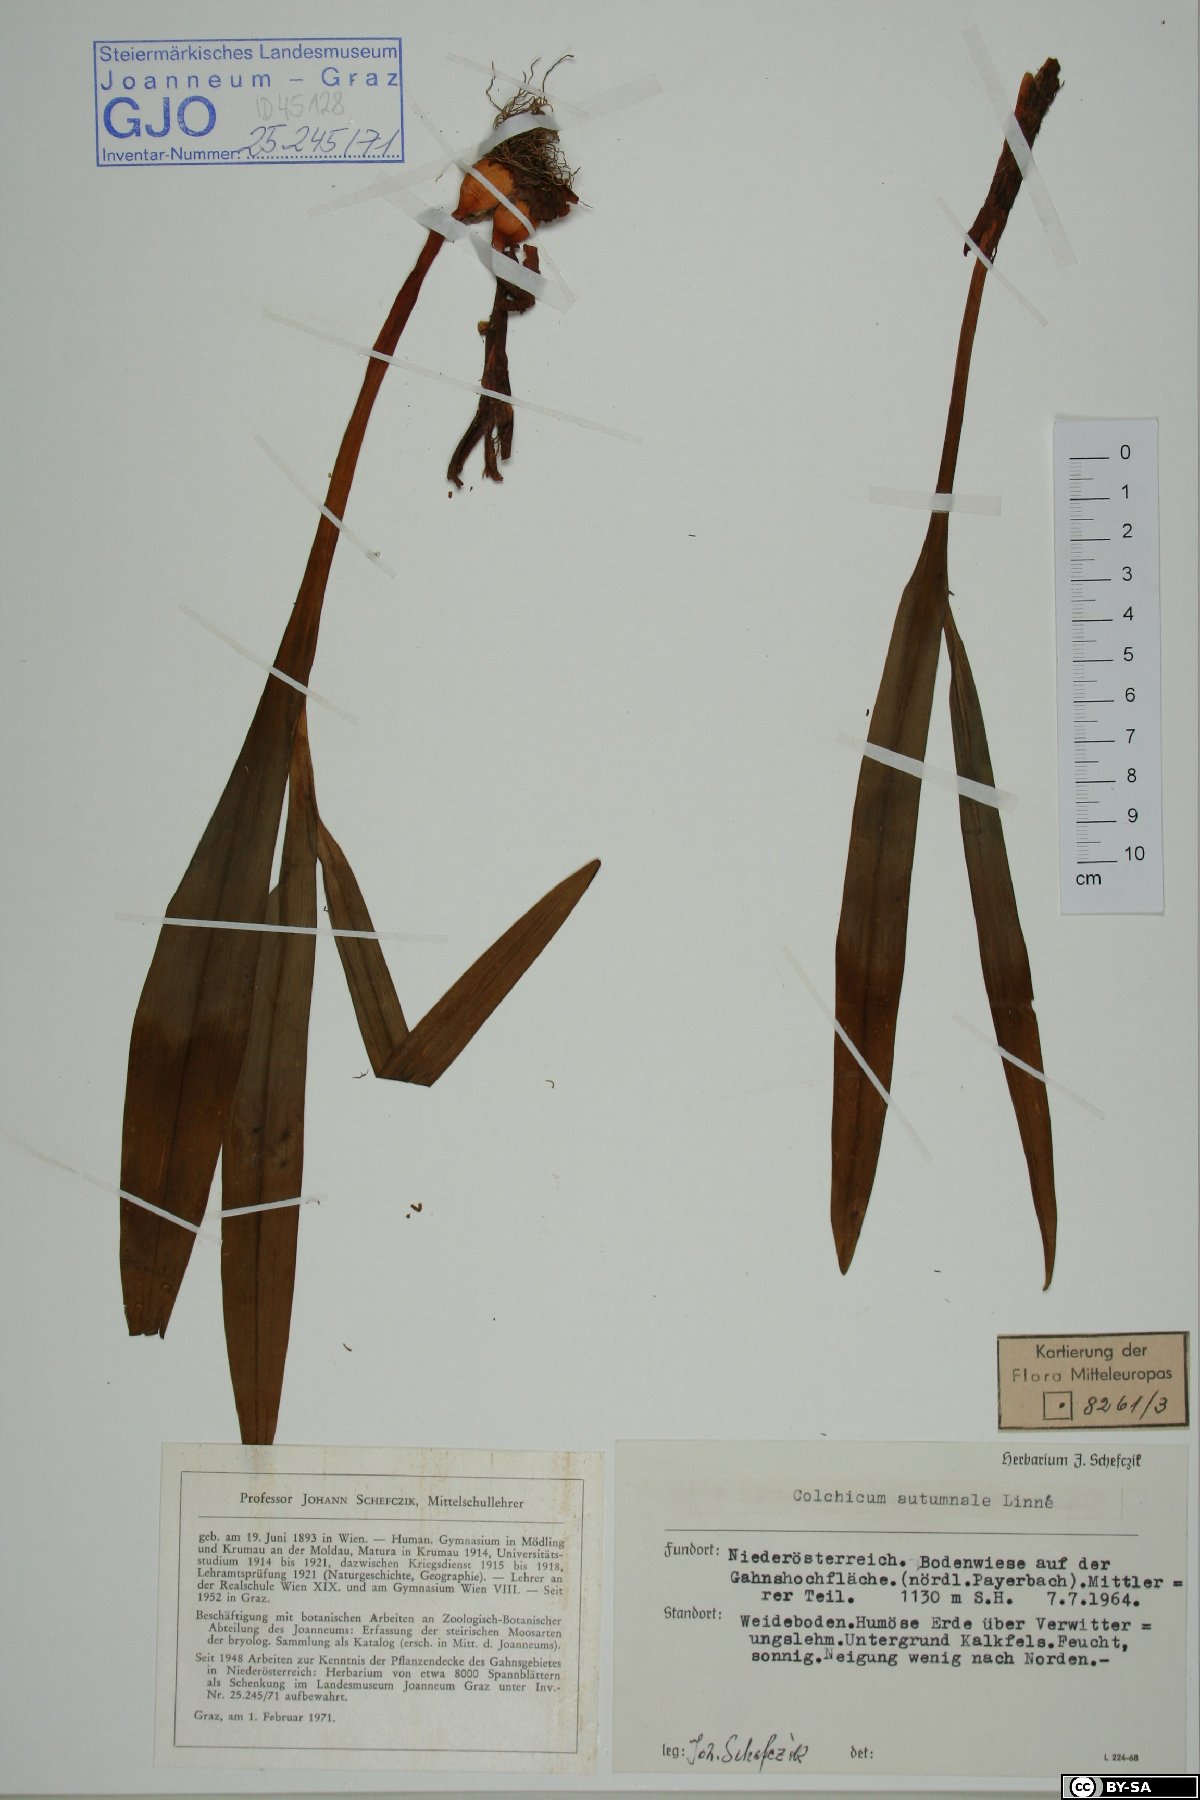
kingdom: Plantae
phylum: Tracheophyta
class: Liliopsida
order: Liliales
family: Colchicaceae
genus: Colchicum
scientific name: Colchicum autumnale
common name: Autumn crocus
